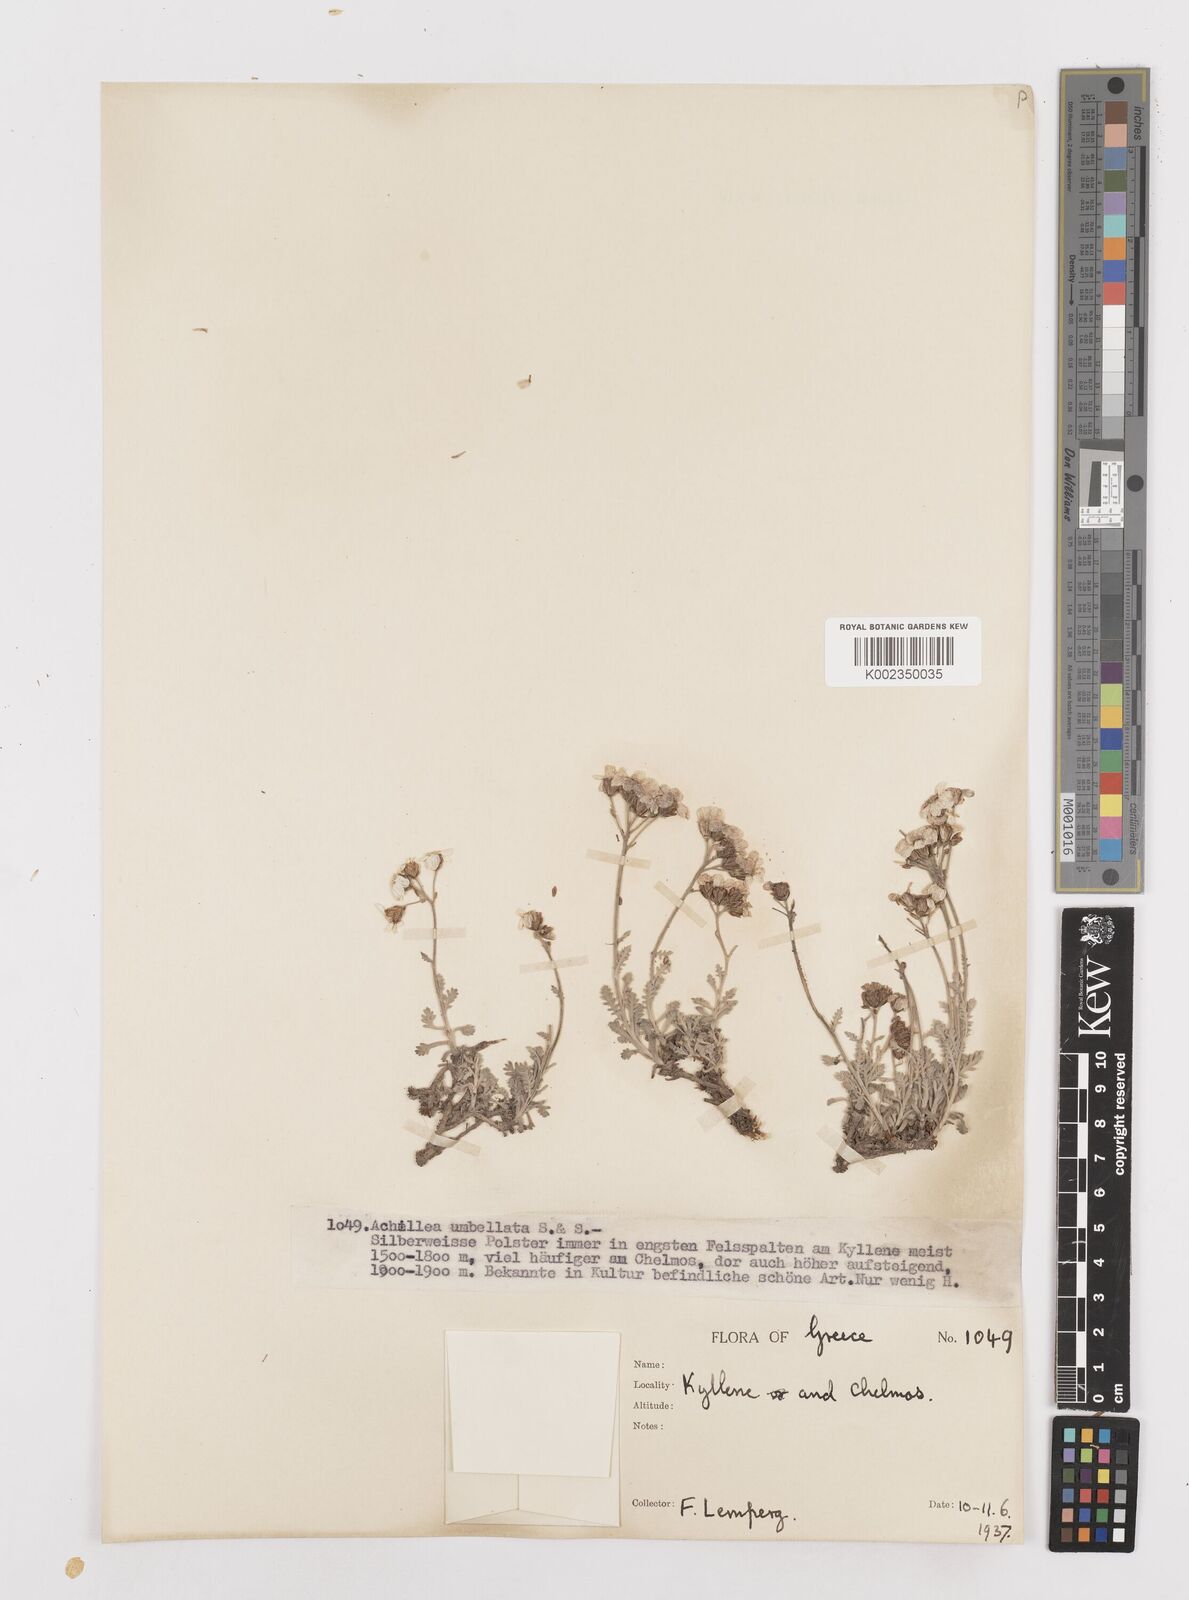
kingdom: Plantae
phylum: Tracheophyta
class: Magnoliopsida
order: Asterales
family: Asteraceae
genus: Achillea
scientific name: Achillea umbellata
